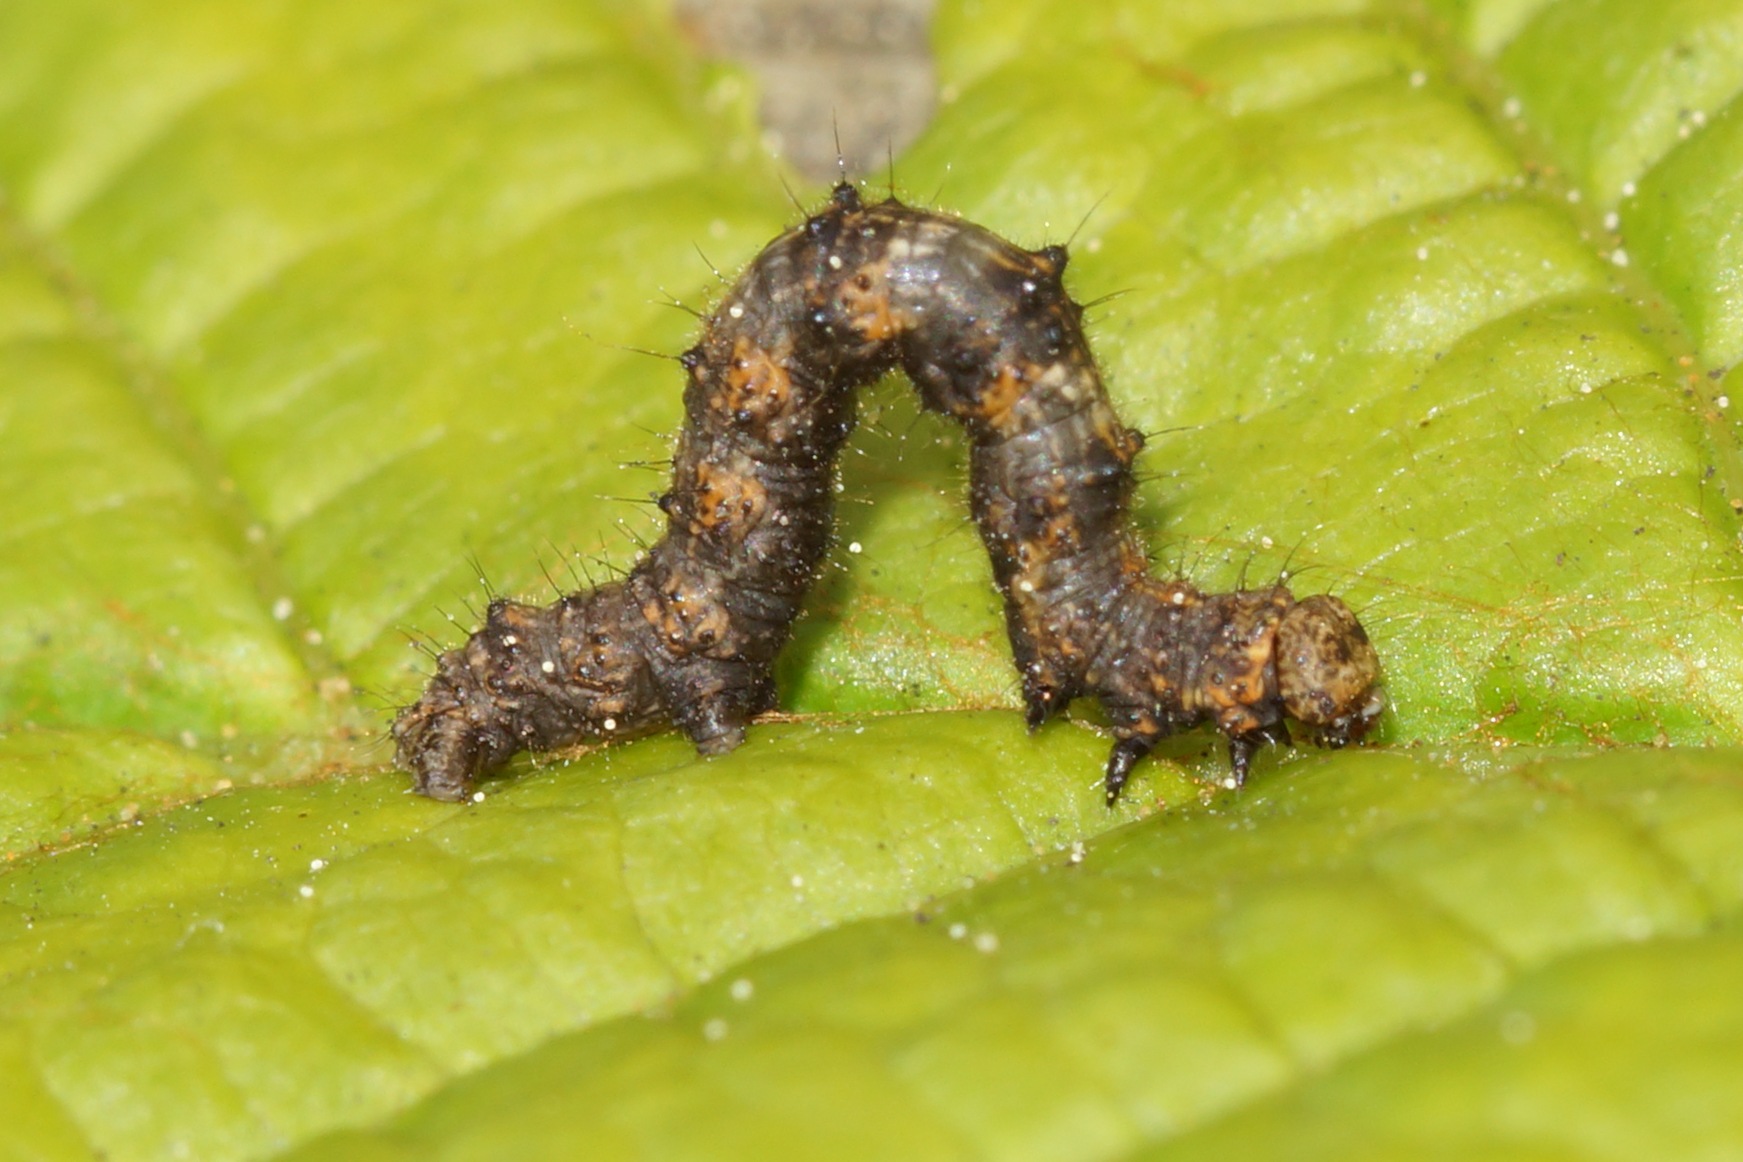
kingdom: Animalia
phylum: Arthropoda
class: Insecta
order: Lepidoptera
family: Geometridae
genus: Phigalia
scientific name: Phigalia pilosaria
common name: Fjer-måler
